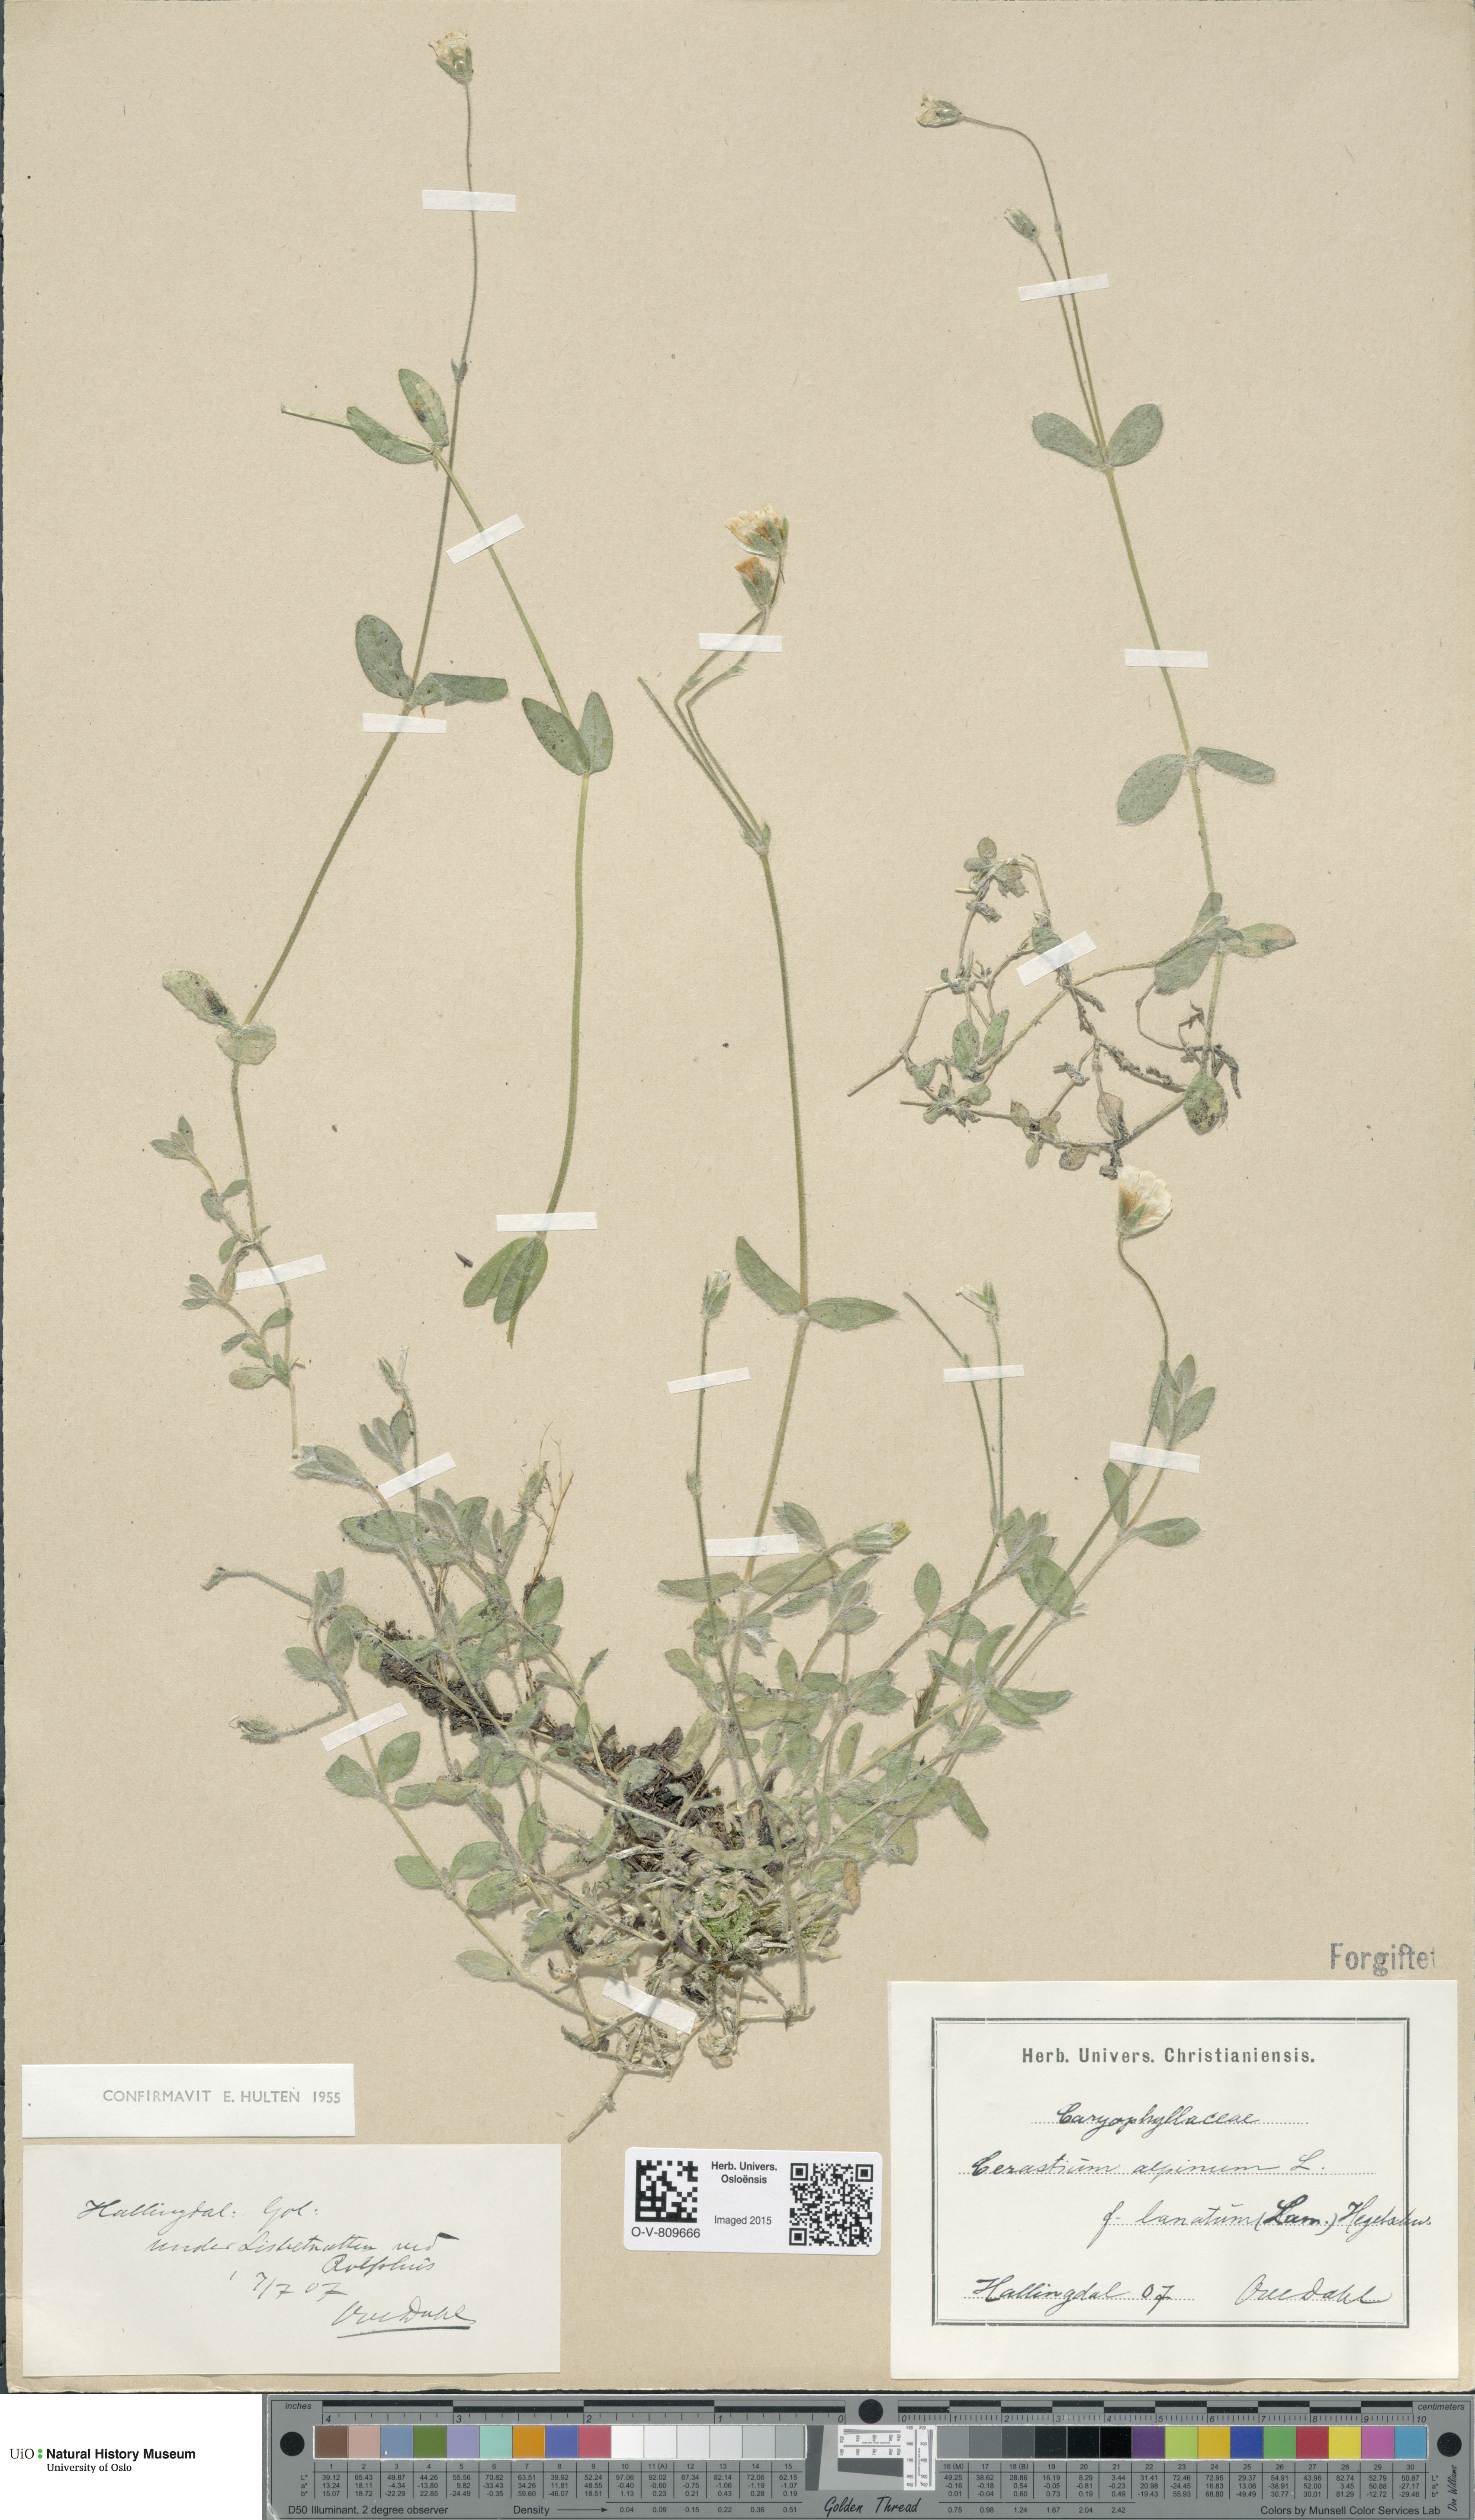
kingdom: Plantae
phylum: Tracheophyta
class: Magnoliopsida
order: Caryophyllales
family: Caryophyllaceae
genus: Cerastium
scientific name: Cerastium alpinum
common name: Alpine mouse-ear
